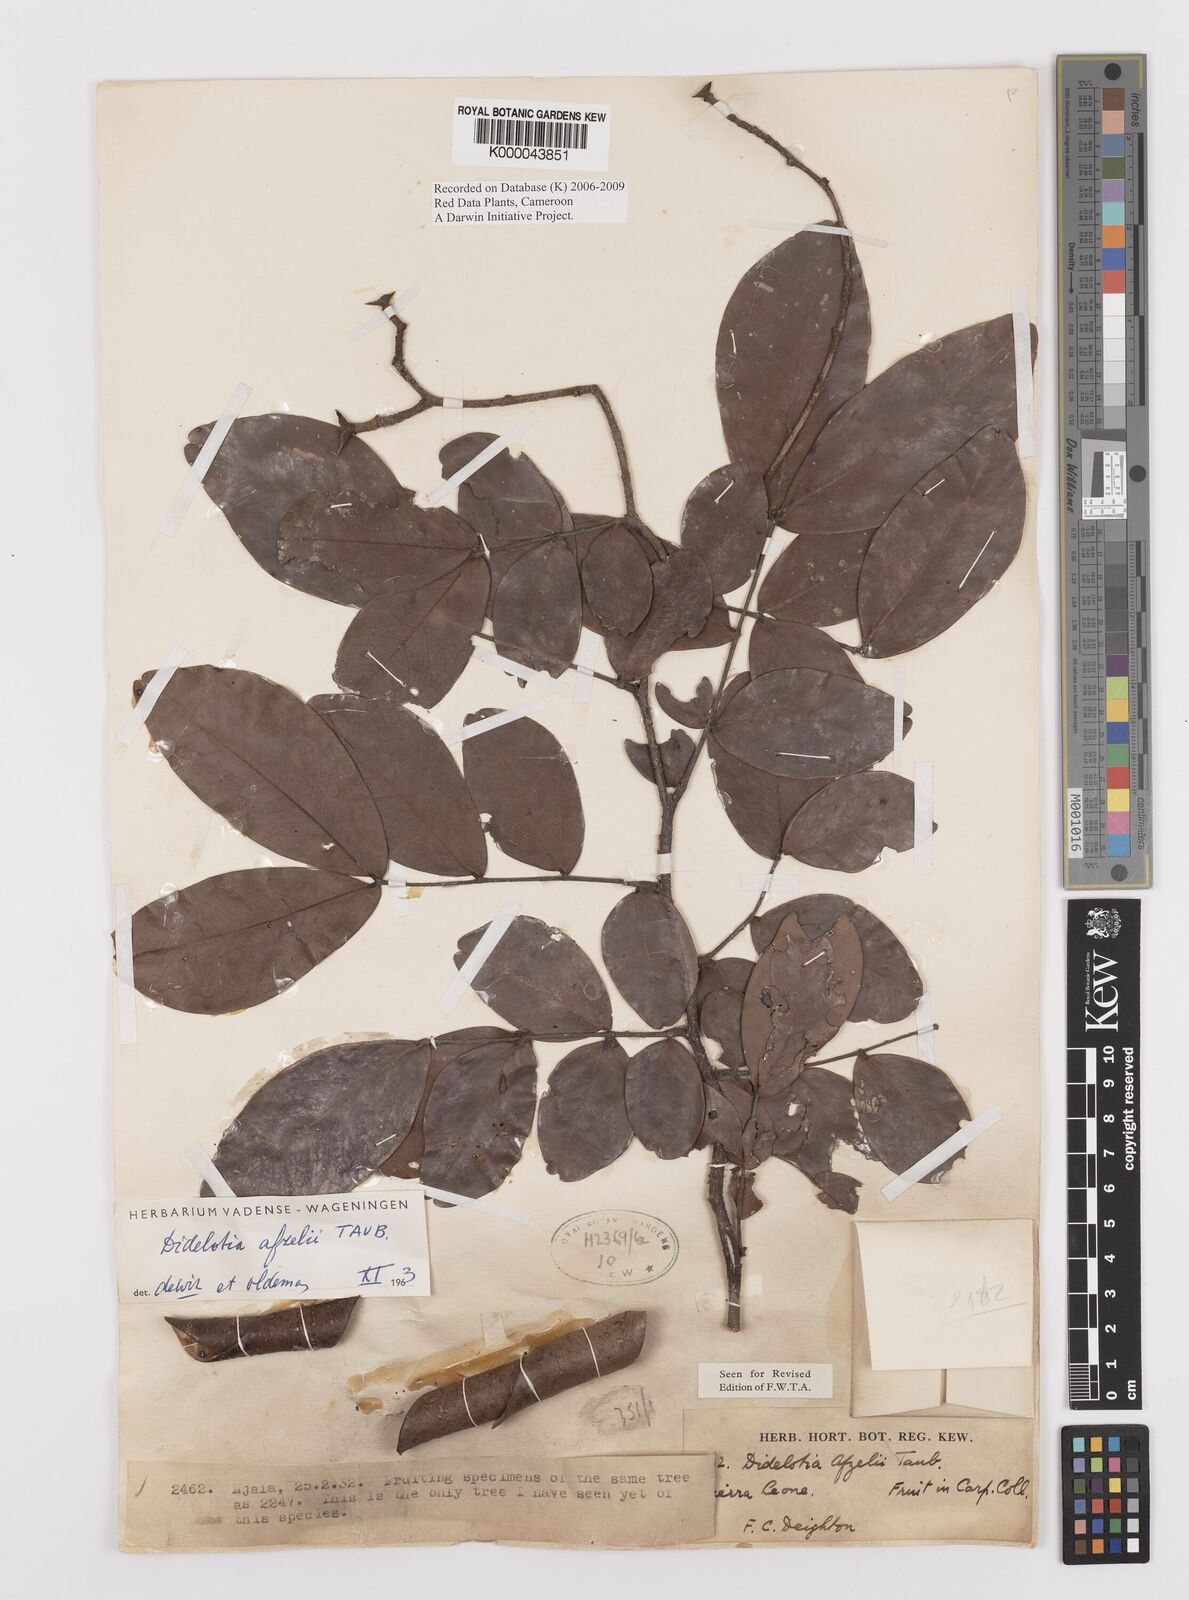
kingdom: Plantae
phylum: Tracheophyta
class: Magnoliopsida
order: Fabales
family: Fabaceae
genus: Didelotia
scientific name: Didelotia
